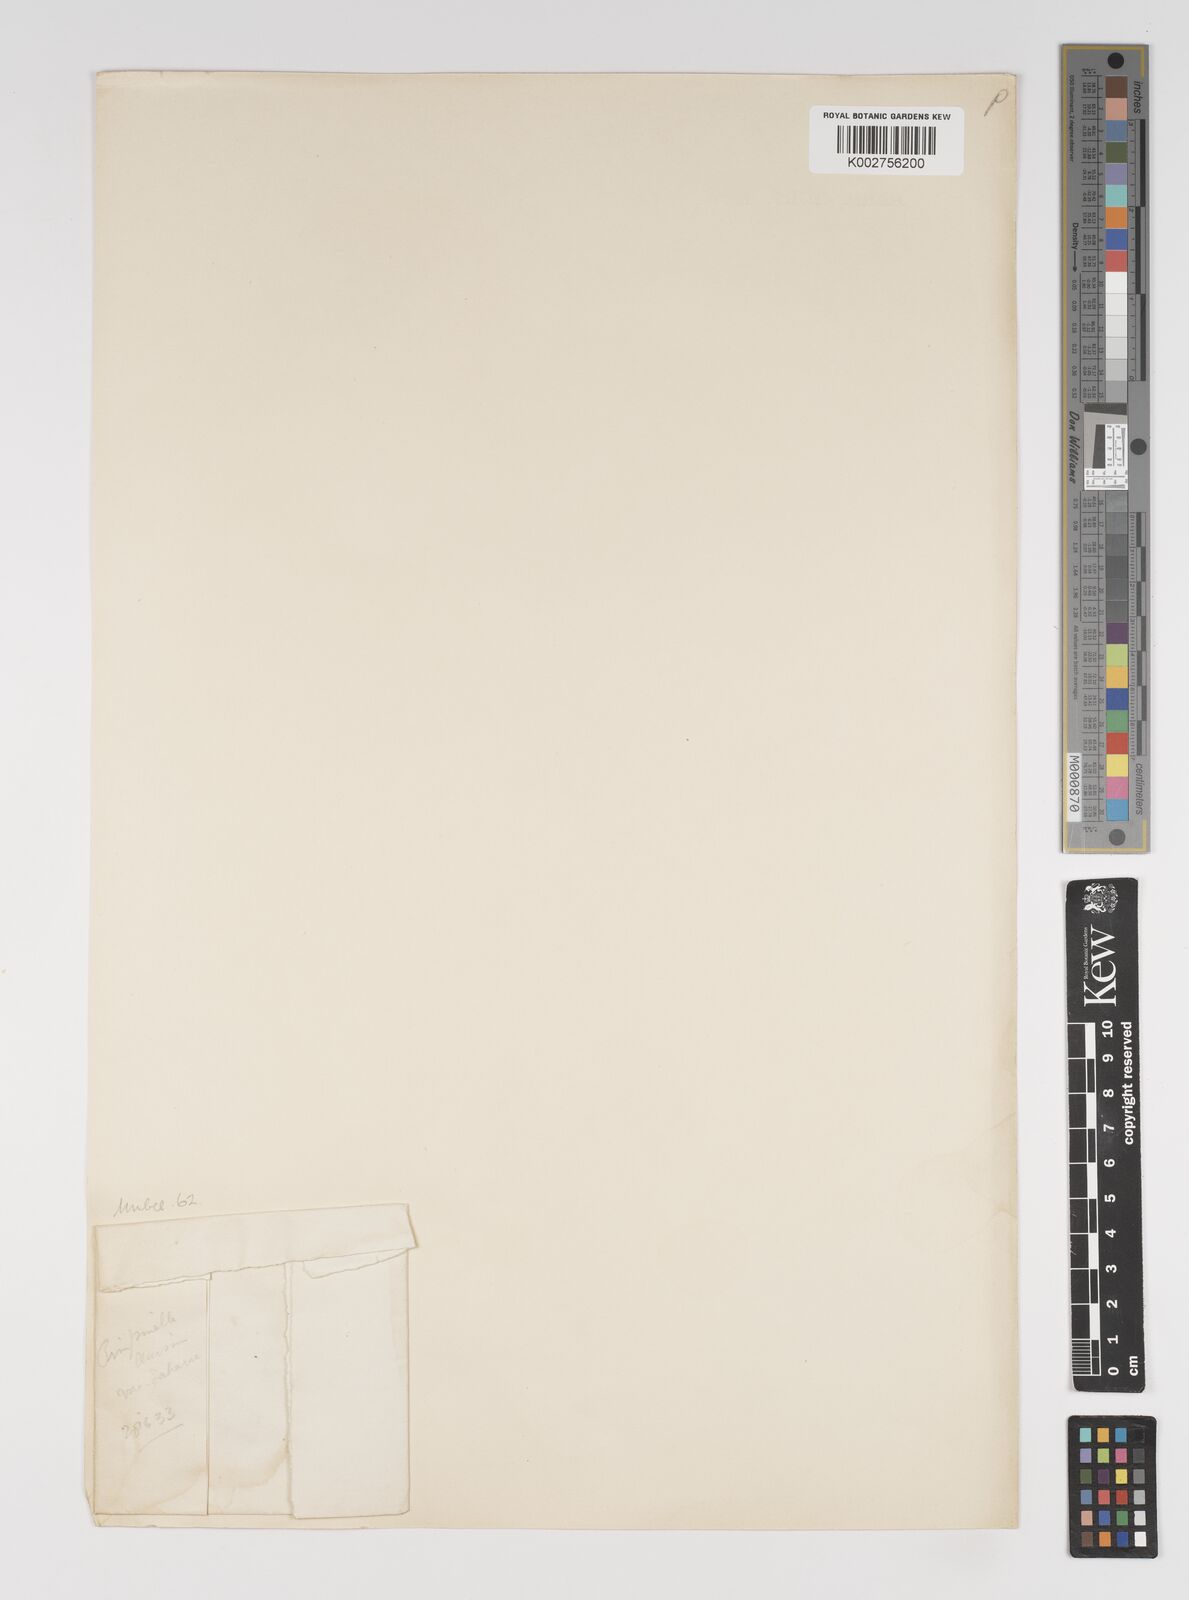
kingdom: Plantae
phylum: Tracheophyta
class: Magnoliopsida
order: Apiales
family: Apiaceae
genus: Pimpinella
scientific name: Pimpinella oreophila
